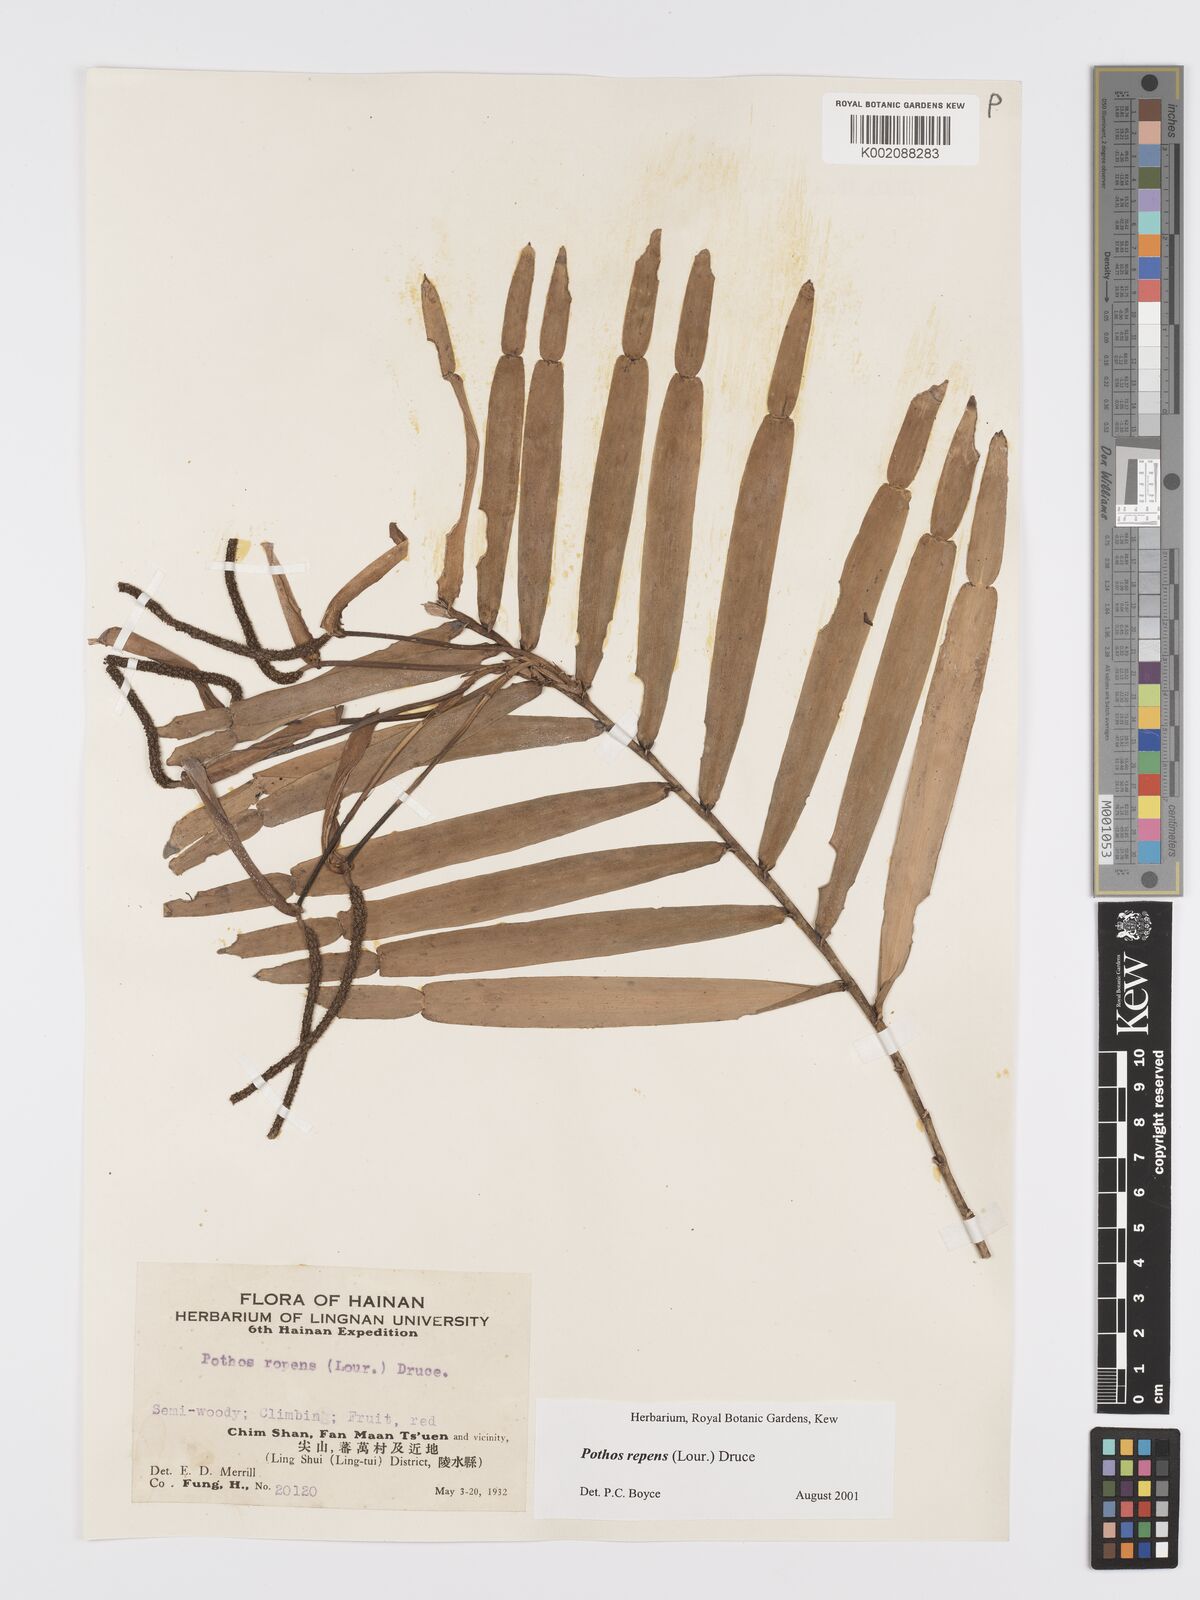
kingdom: Plantae
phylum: Tracheophyta
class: Liliopsida
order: Alismatales
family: Araceae
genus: Pothos
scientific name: Pothos repens
